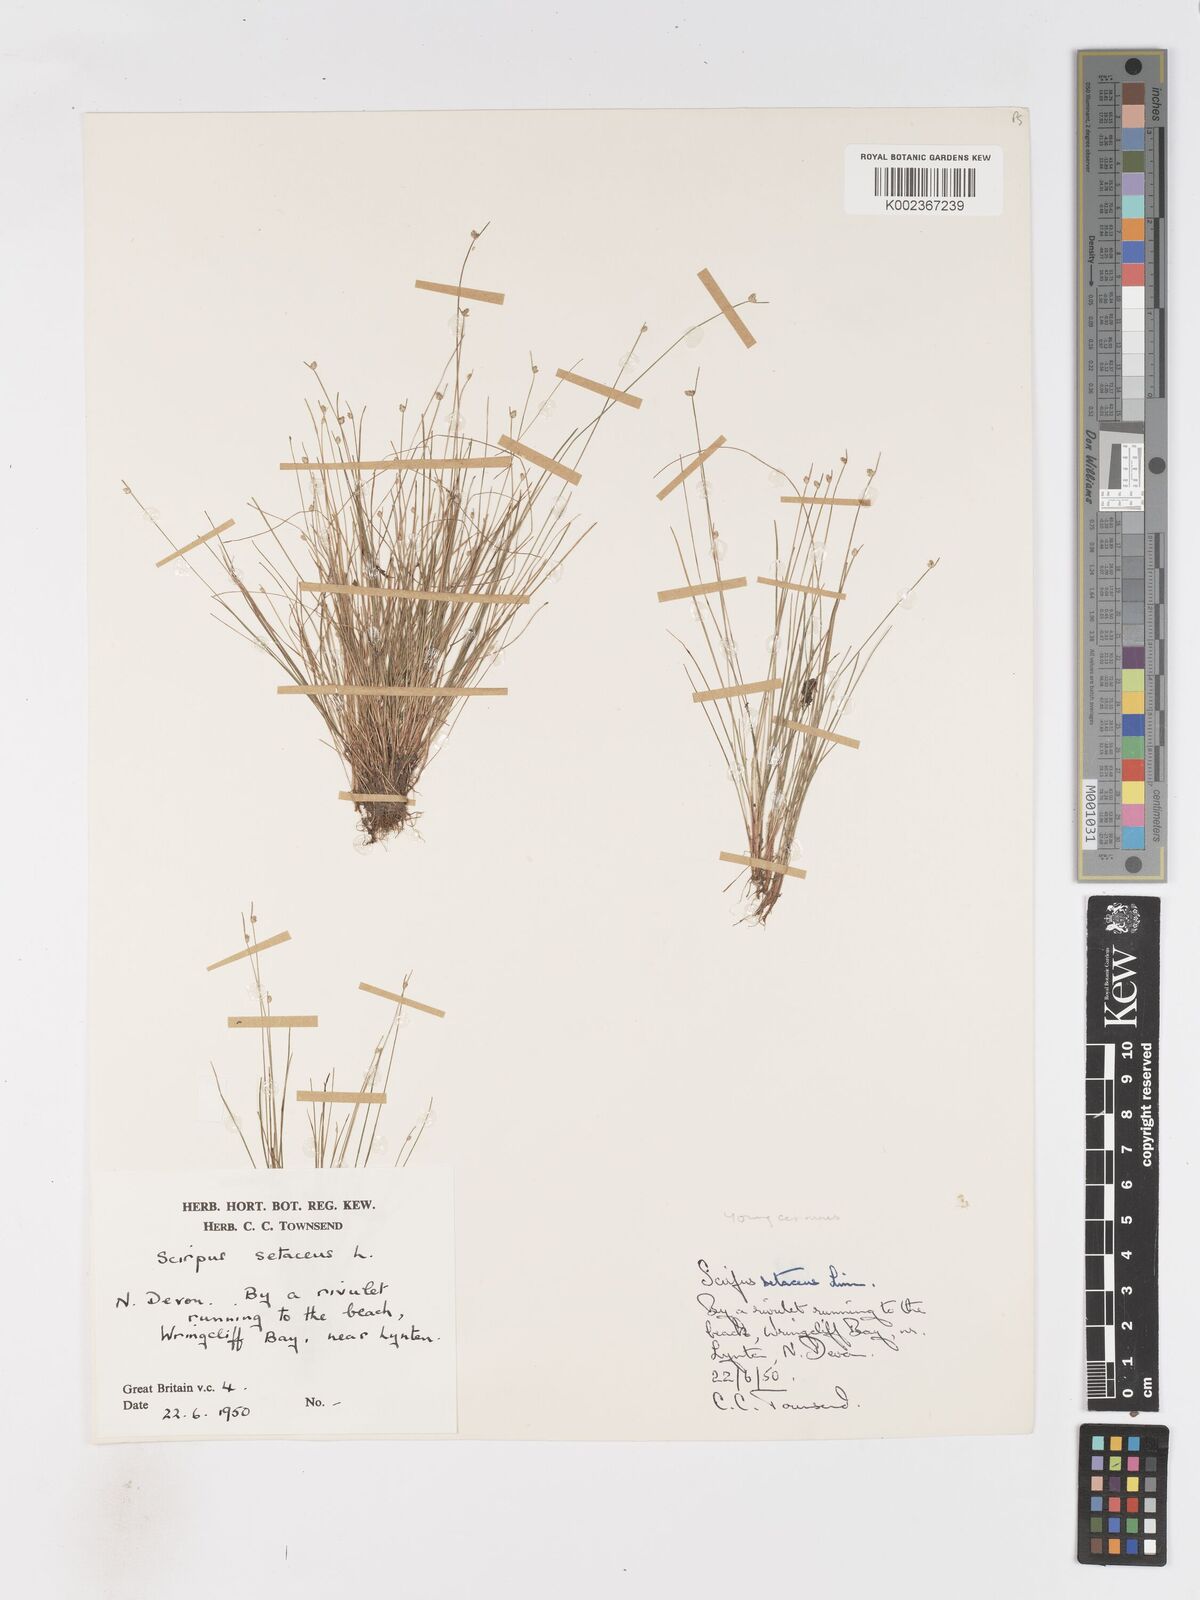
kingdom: Plantae
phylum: Tracheophyta
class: Liliopsida
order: Poales
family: Cyperaceae
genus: Isolepis
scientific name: Isolepis cernua
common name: Slender club-rush
